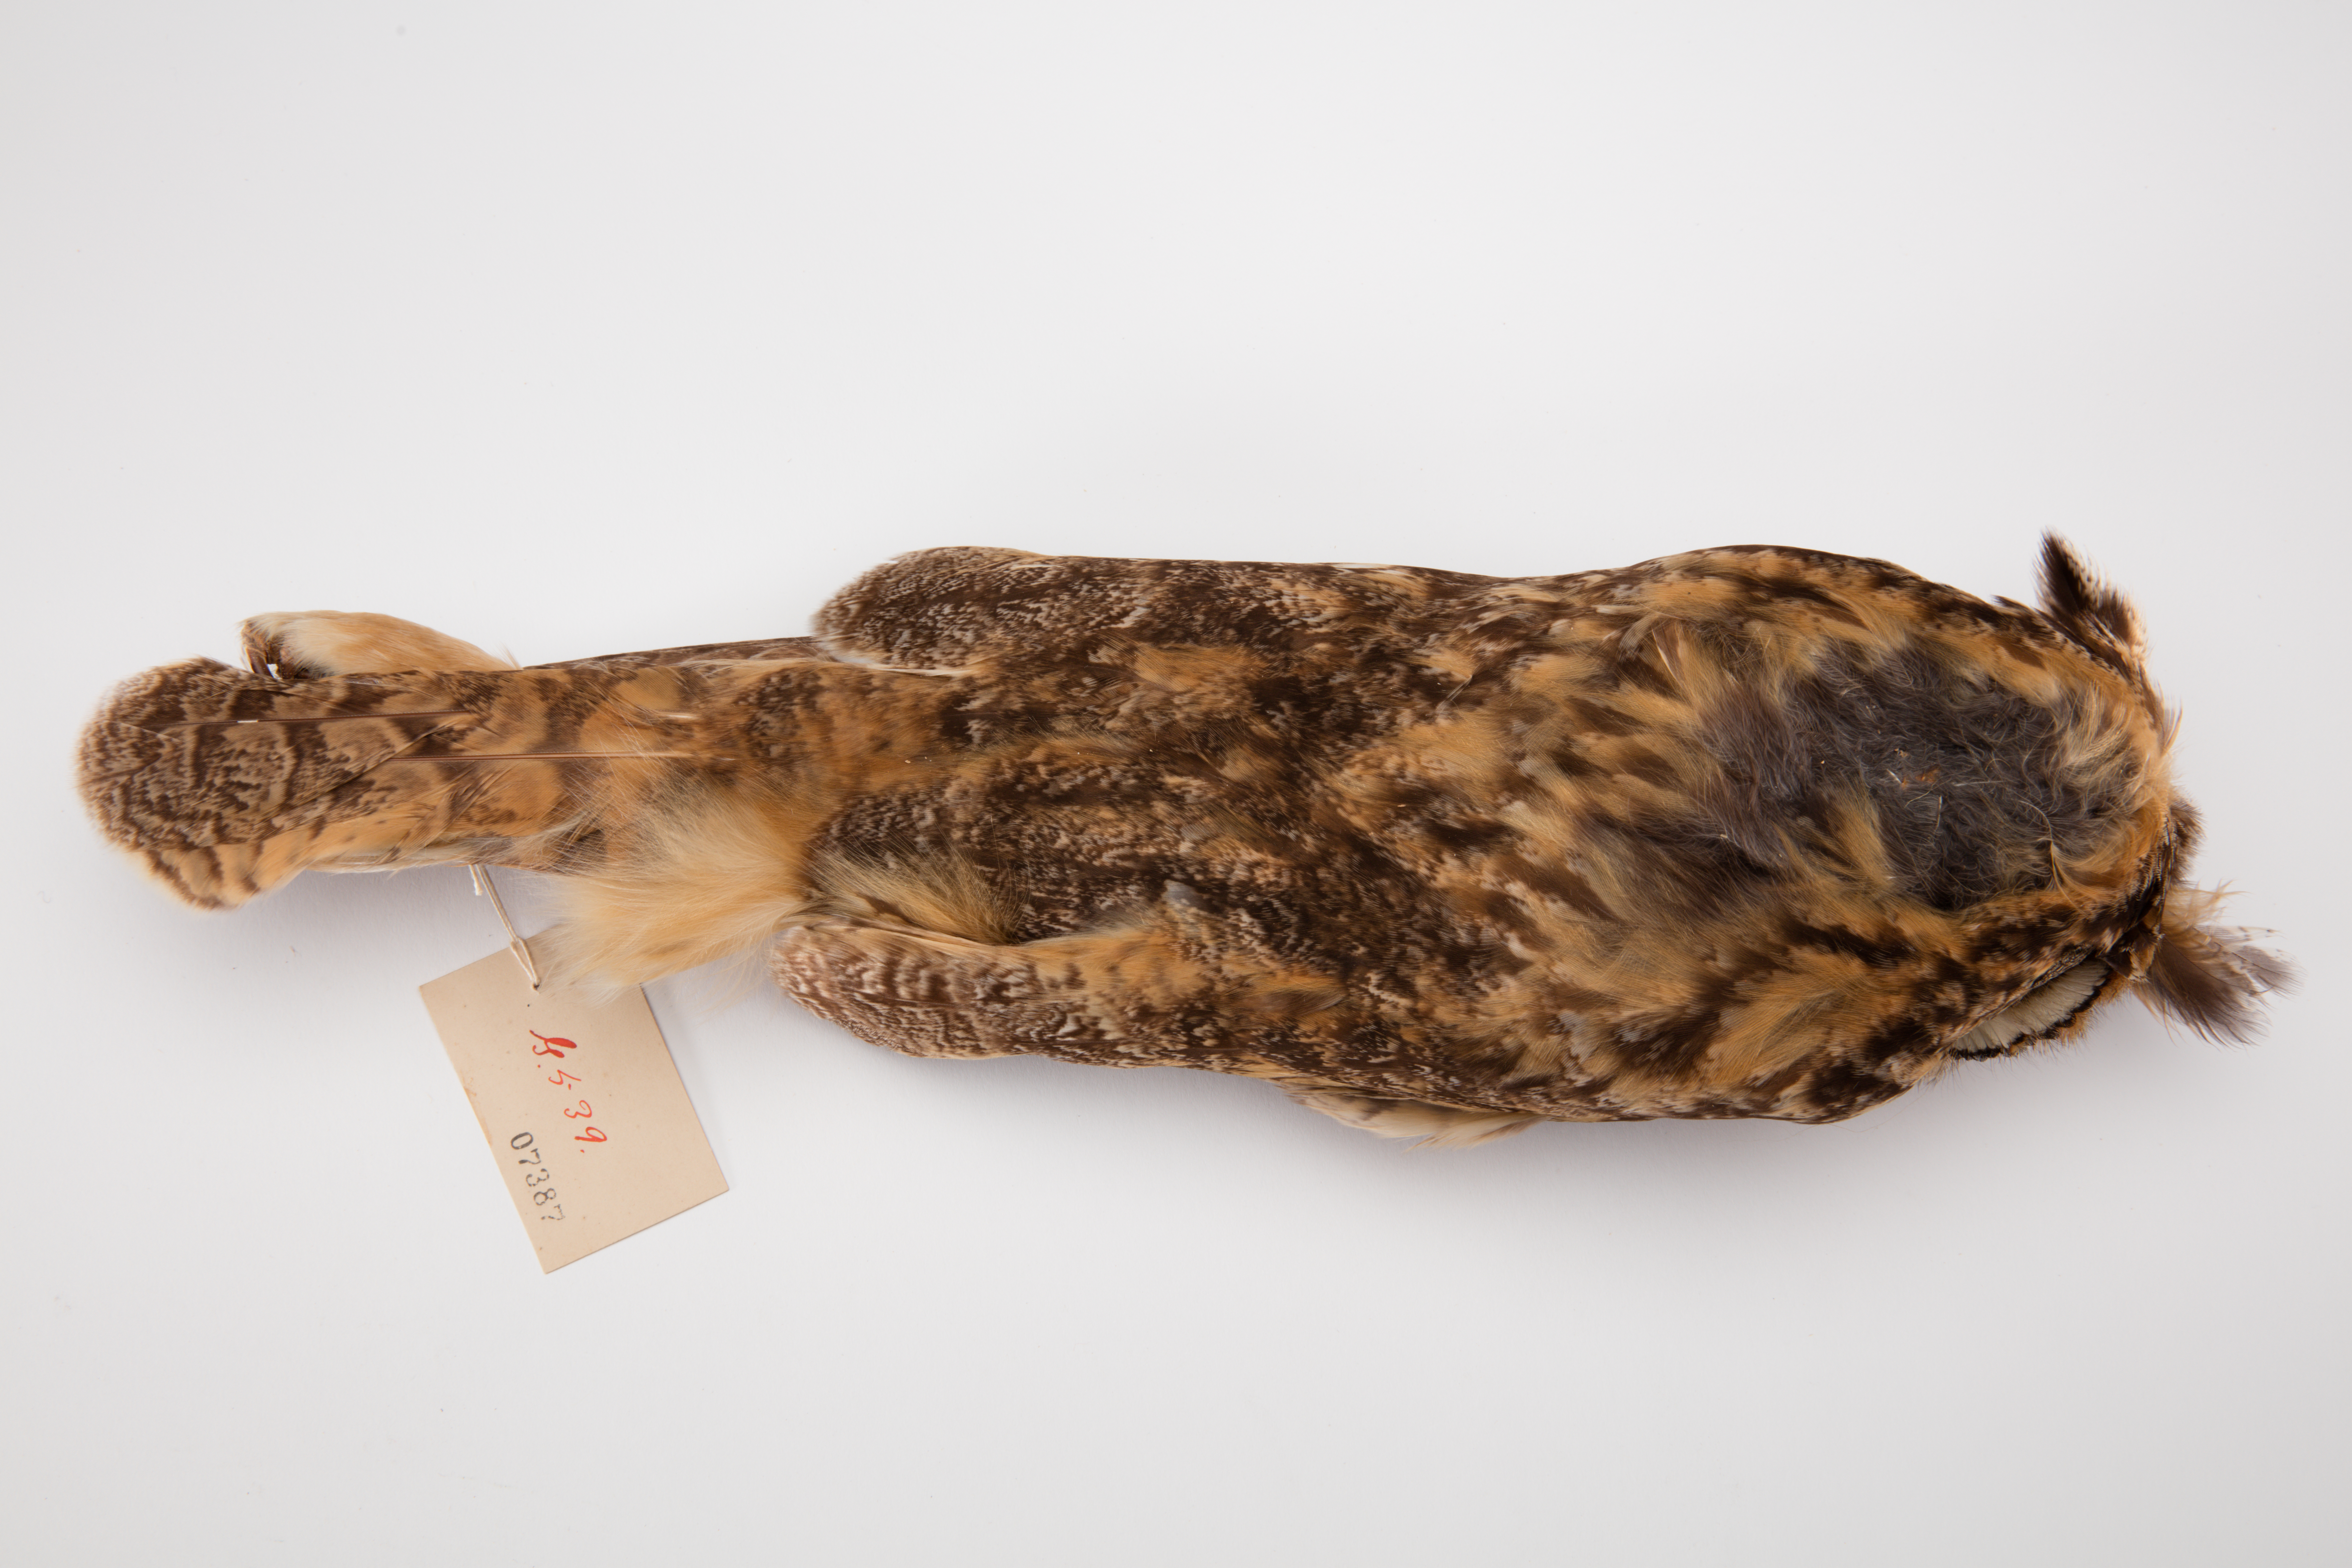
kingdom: Animalia
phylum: Chordata
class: Aves
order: Strigiformes
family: Strigidae
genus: Asio
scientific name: Asio otus
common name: Long-eared owl
